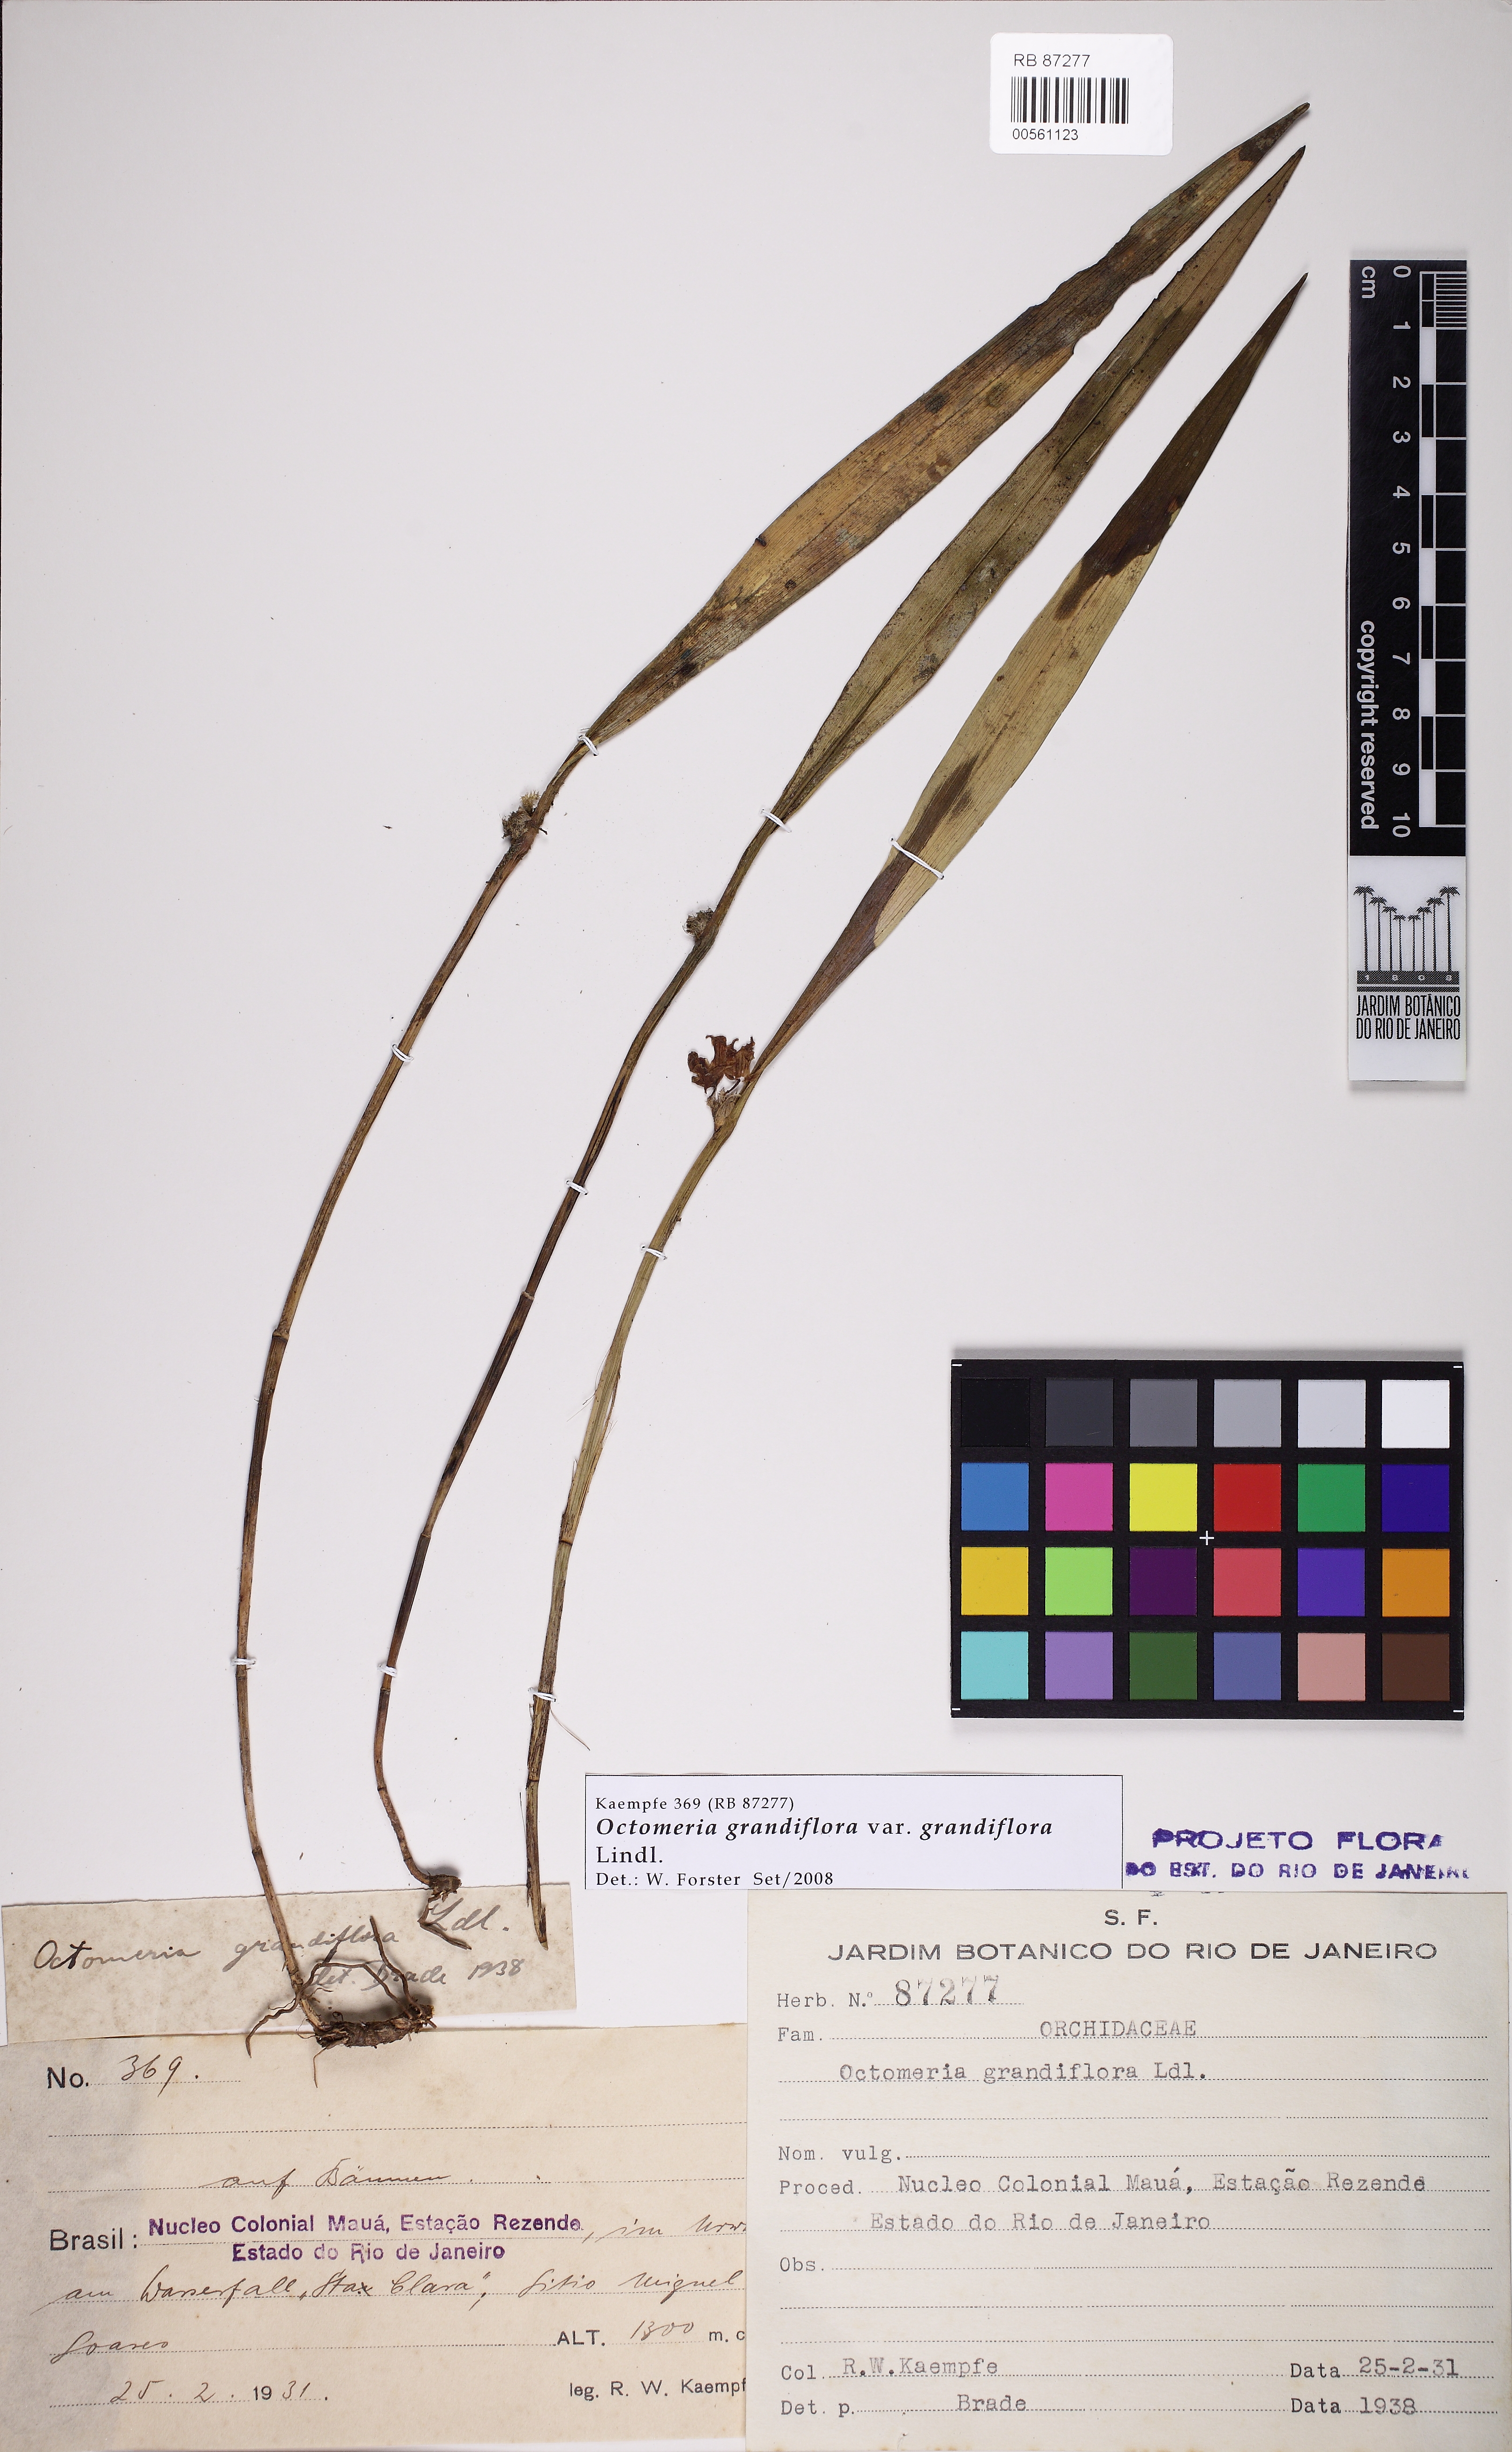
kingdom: Plantae
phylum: Tracheophyta
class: Liliopsida
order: Asparagales
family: Orchidaceae
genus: Octomeria
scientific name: Octomeria grandiflora
